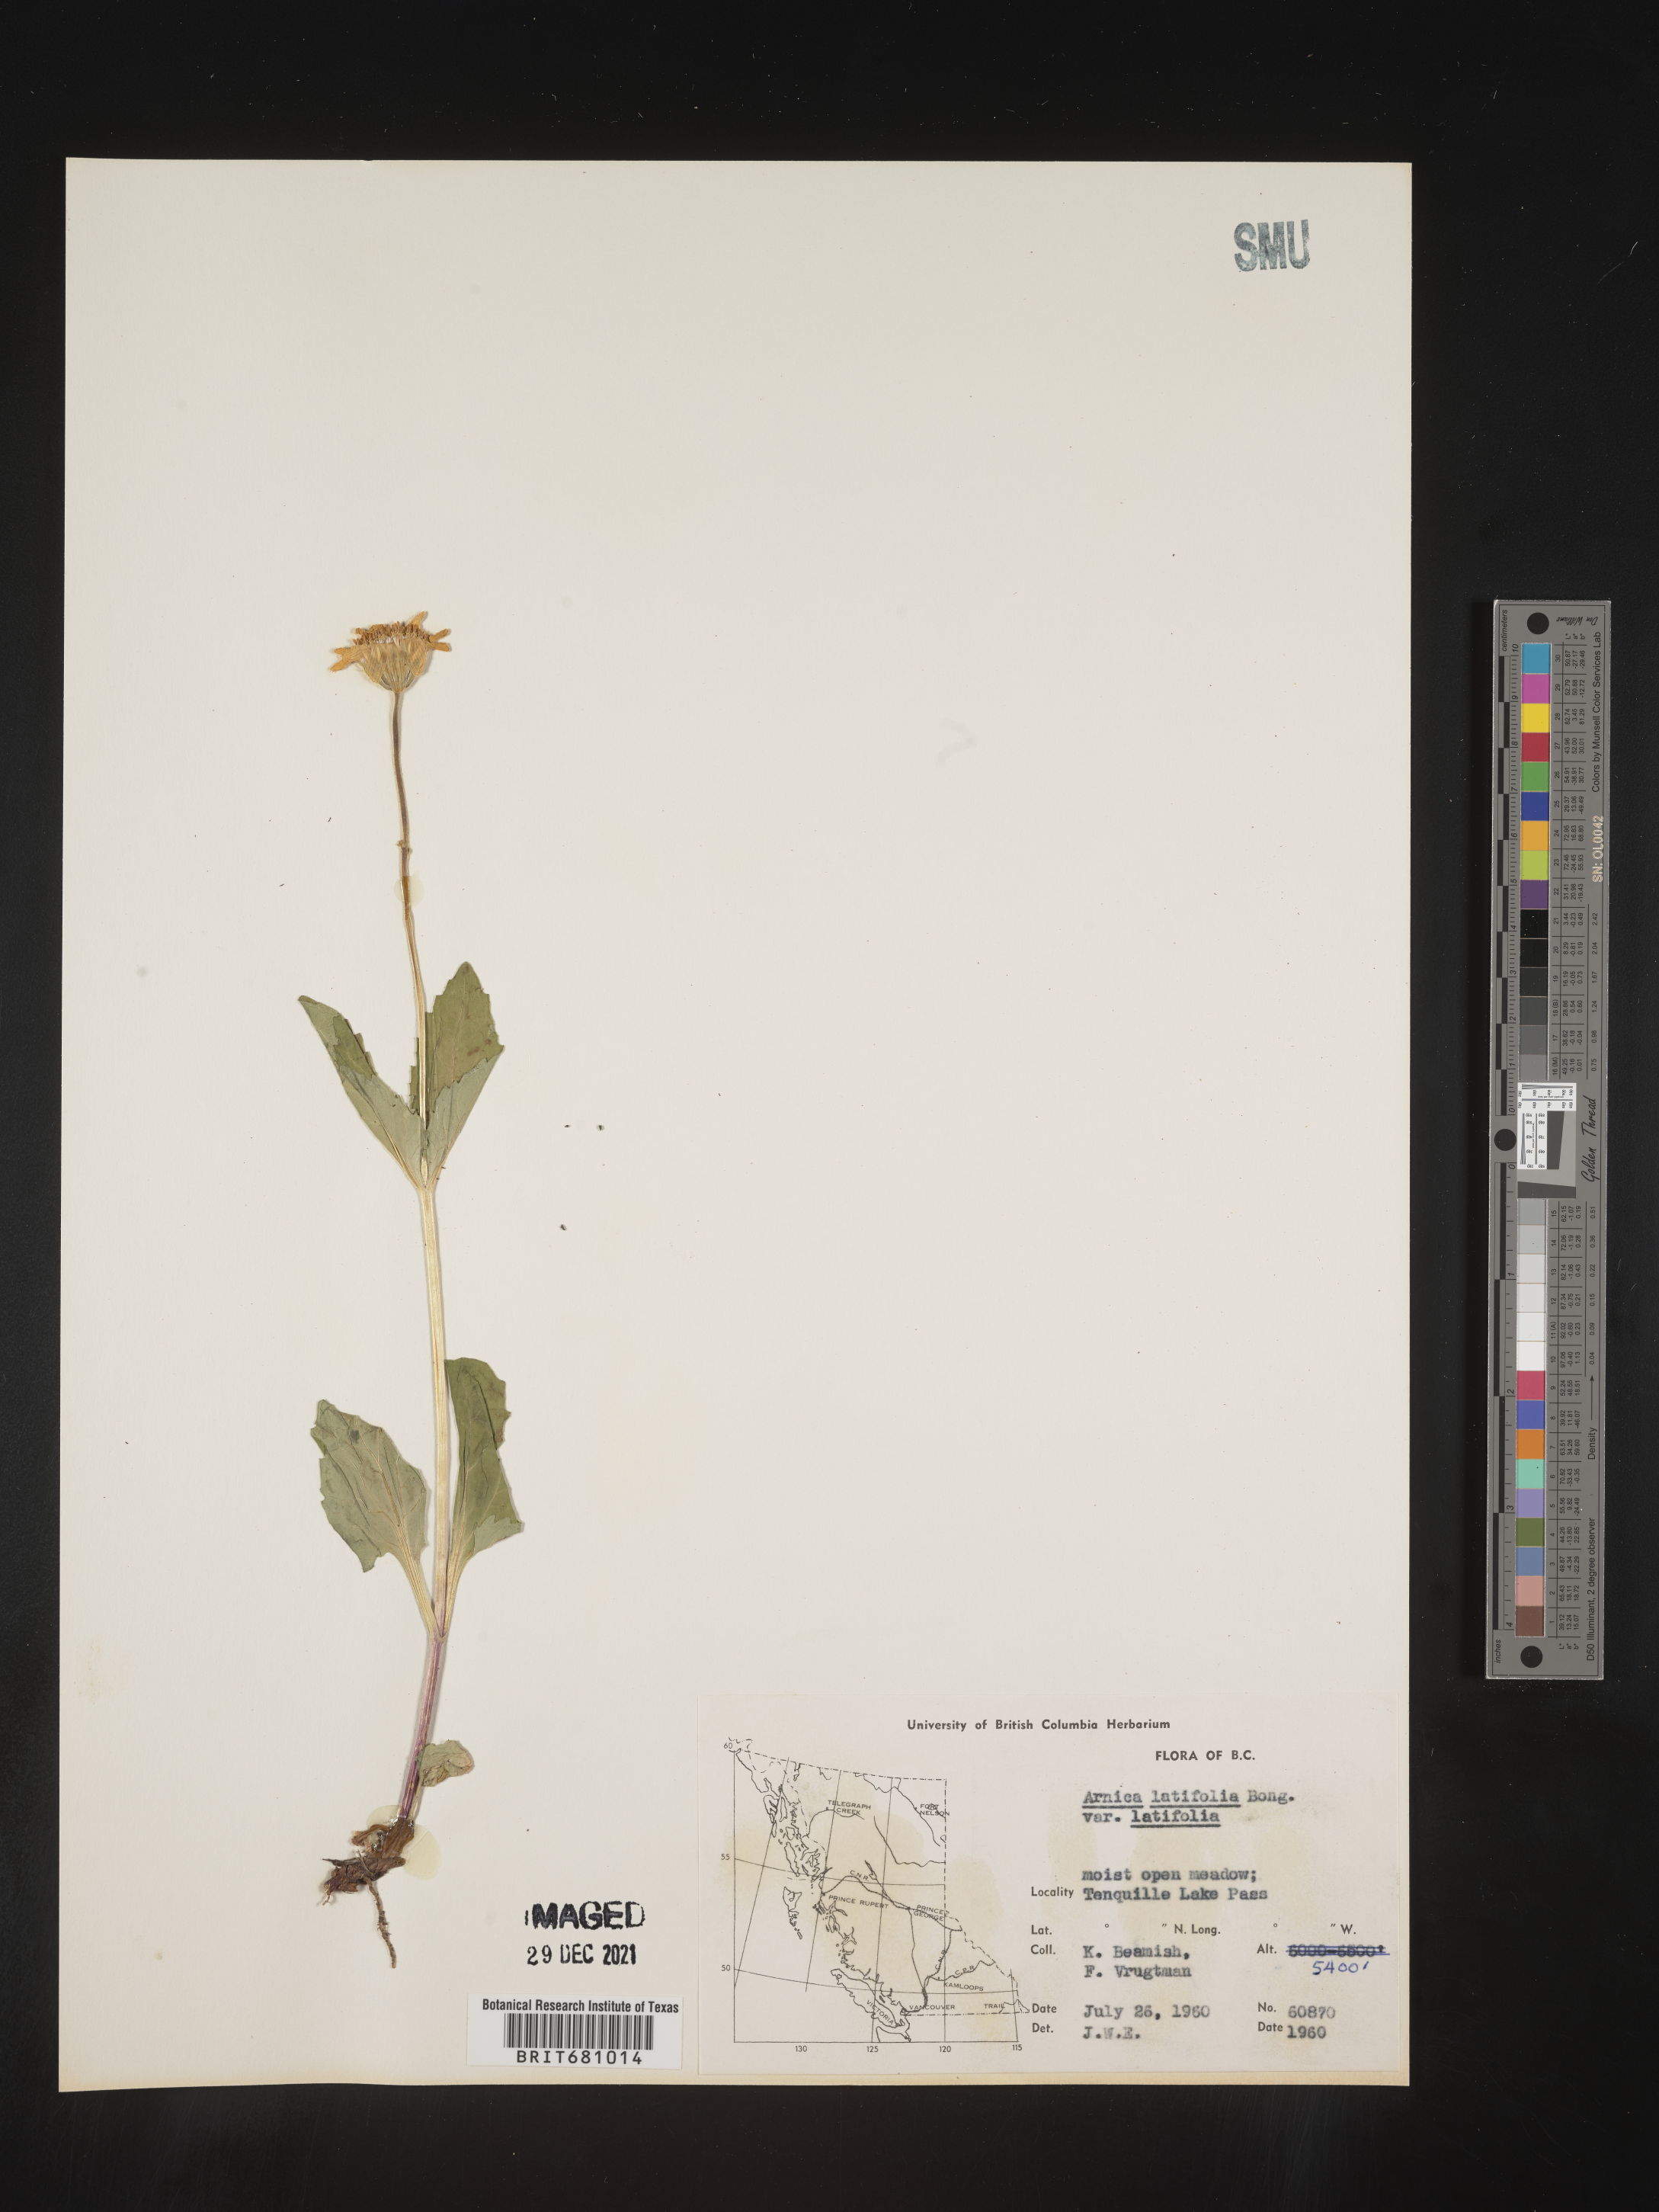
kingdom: Plantae
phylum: Tracheophyta
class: Magnoliopsida
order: Asterales
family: Asteraceae
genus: Arnica
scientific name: Arnica latifolia
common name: Arnica
